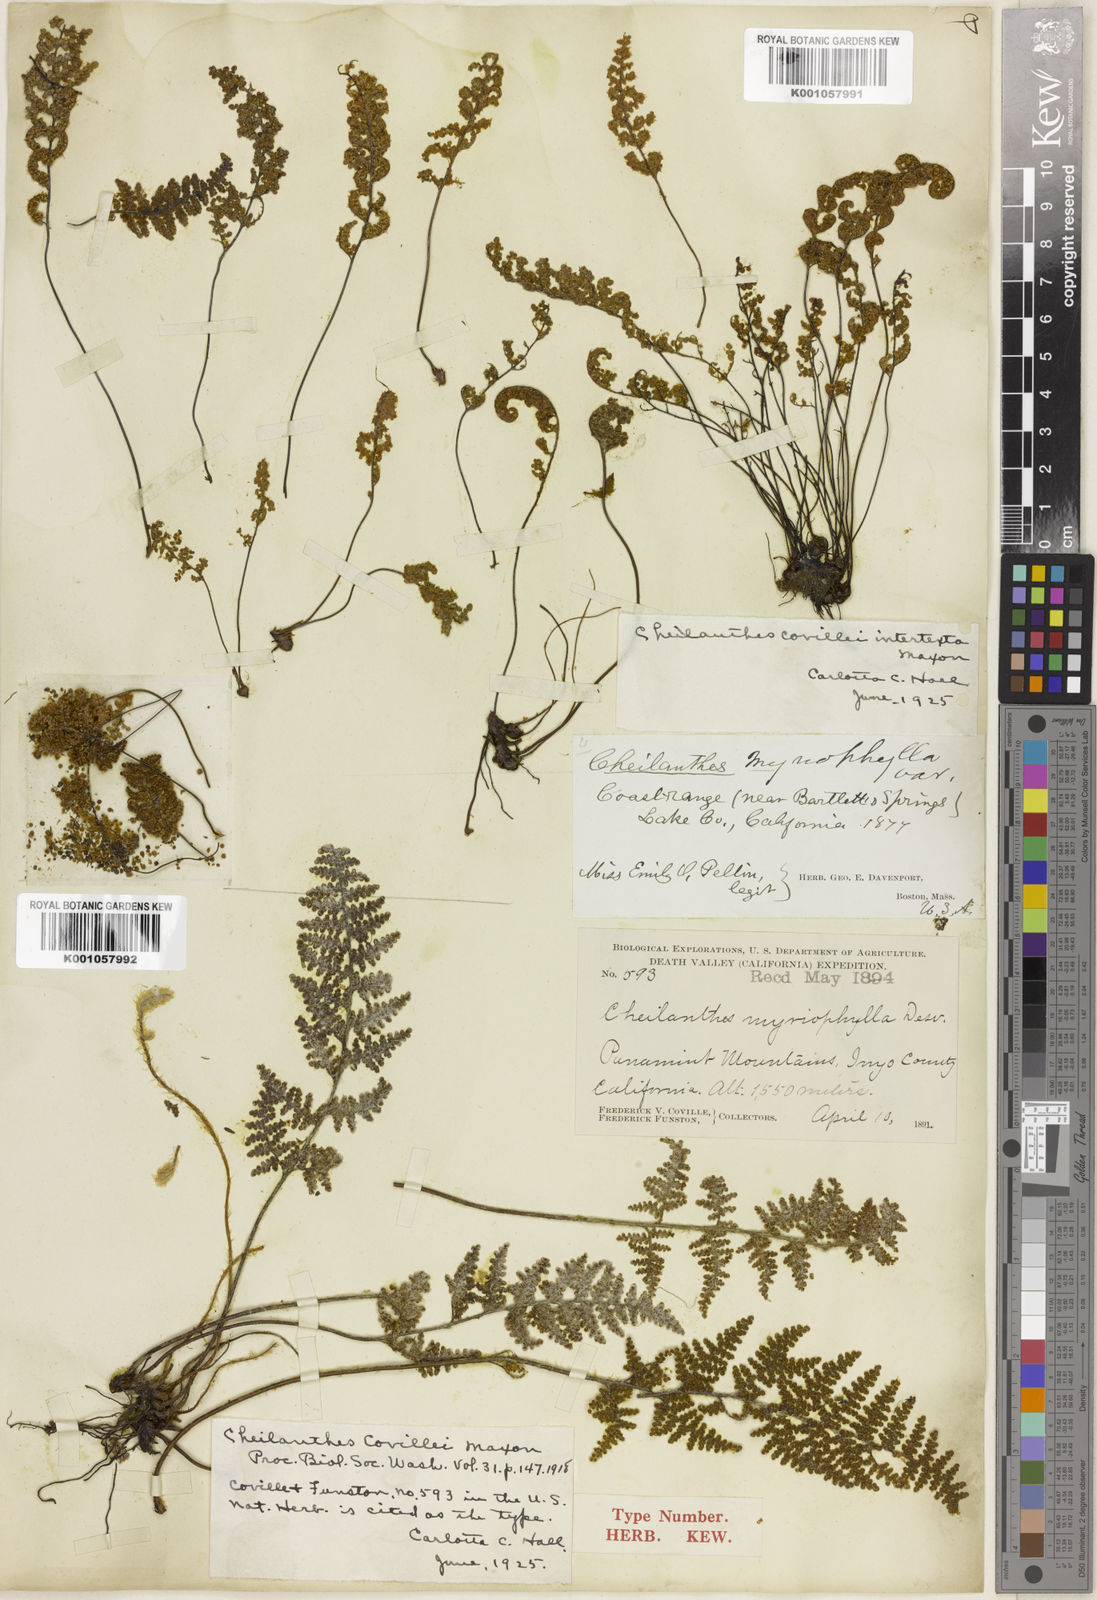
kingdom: Plantae
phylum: Tracheophyta
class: Polypodiopsida
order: Polypodiales
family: Pteridaceae
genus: Myriopteris
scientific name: Myriopteris covillei
